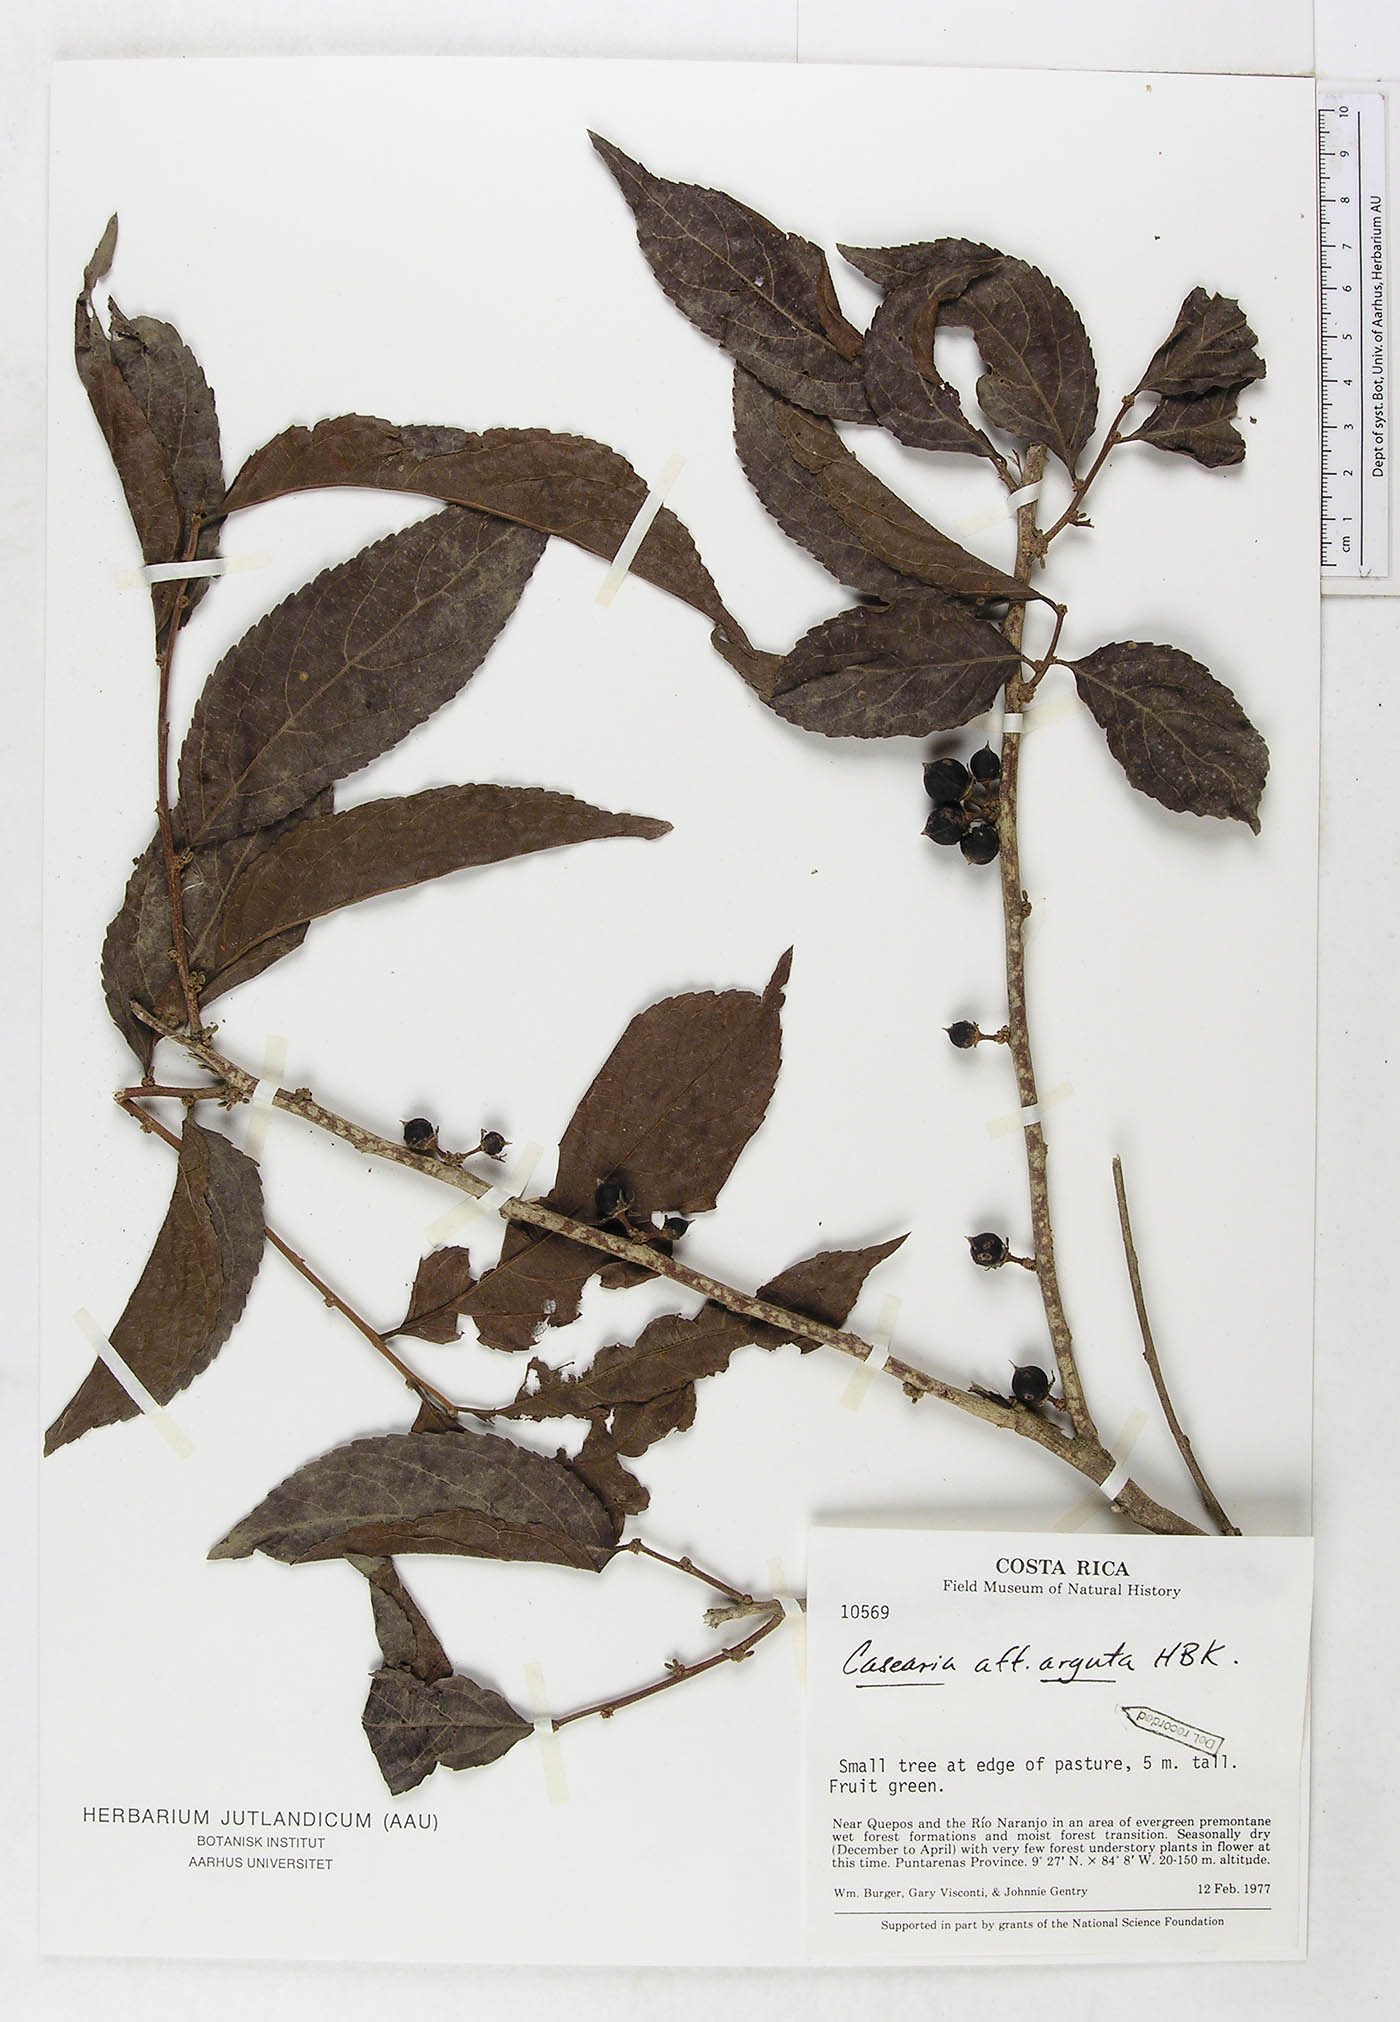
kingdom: Plantae
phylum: Tracheophyta
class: Magnoliopsida
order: Malpighiales
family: Salicaceae
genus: Casearia
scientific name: Casearia arguta
